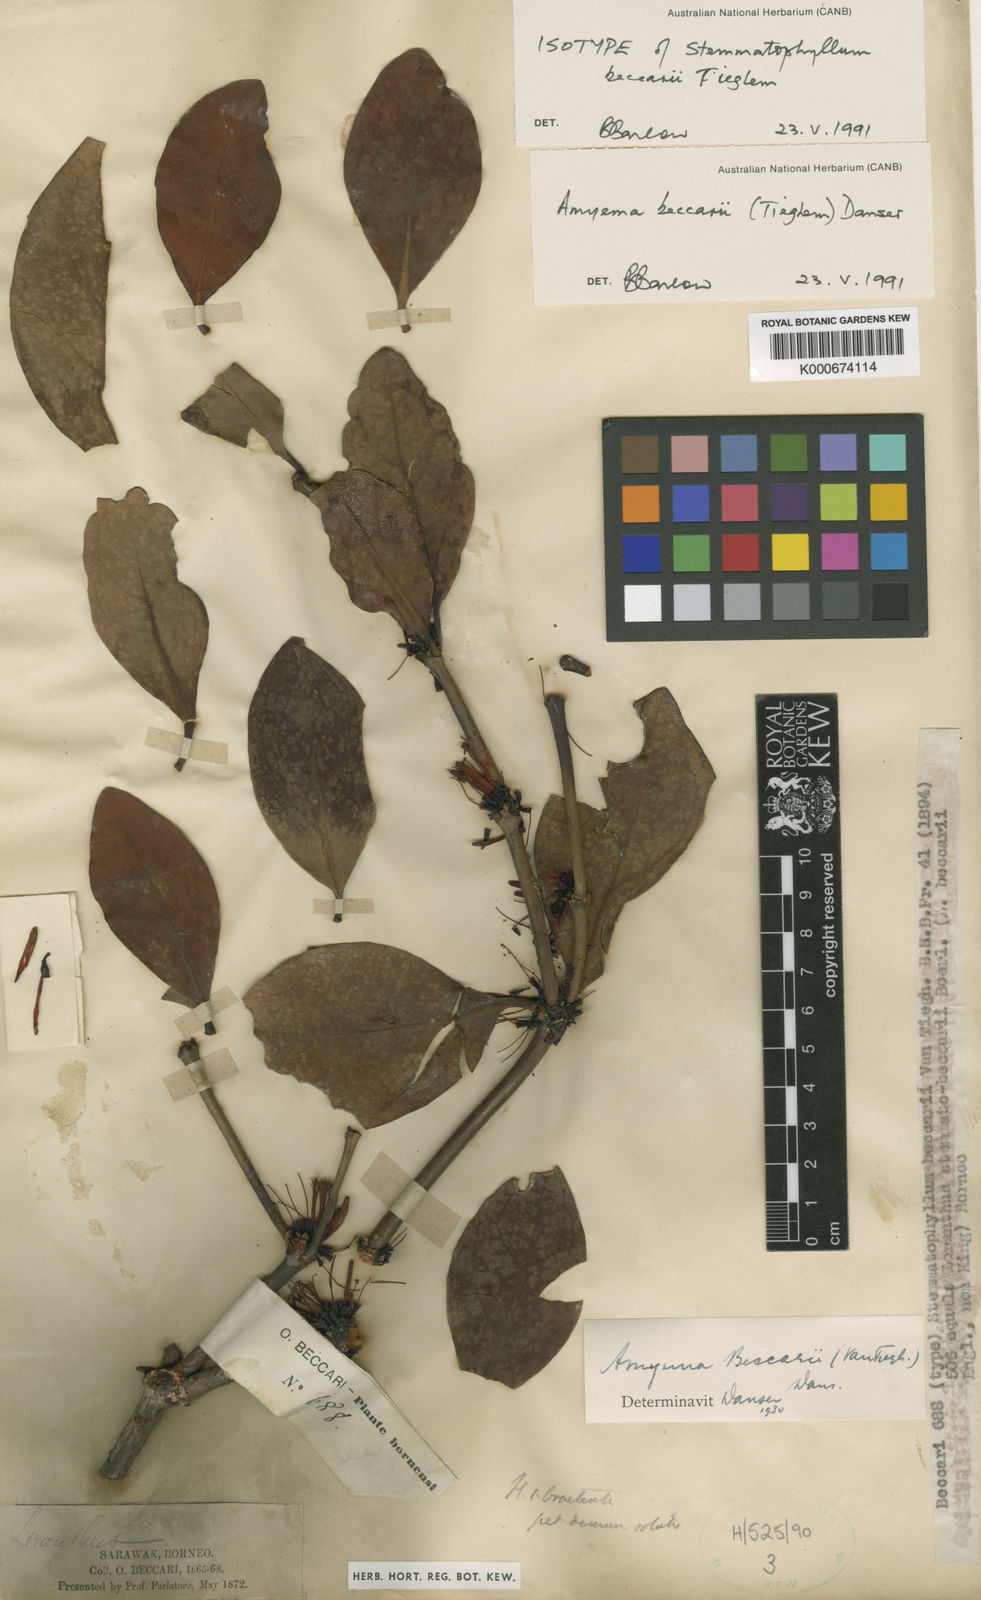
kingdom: Plantae
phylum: Tracheophyta
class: Magnoliopsida
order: Santalales
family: Loranthaceae
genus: Amyema
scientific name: Amyema beccarii
